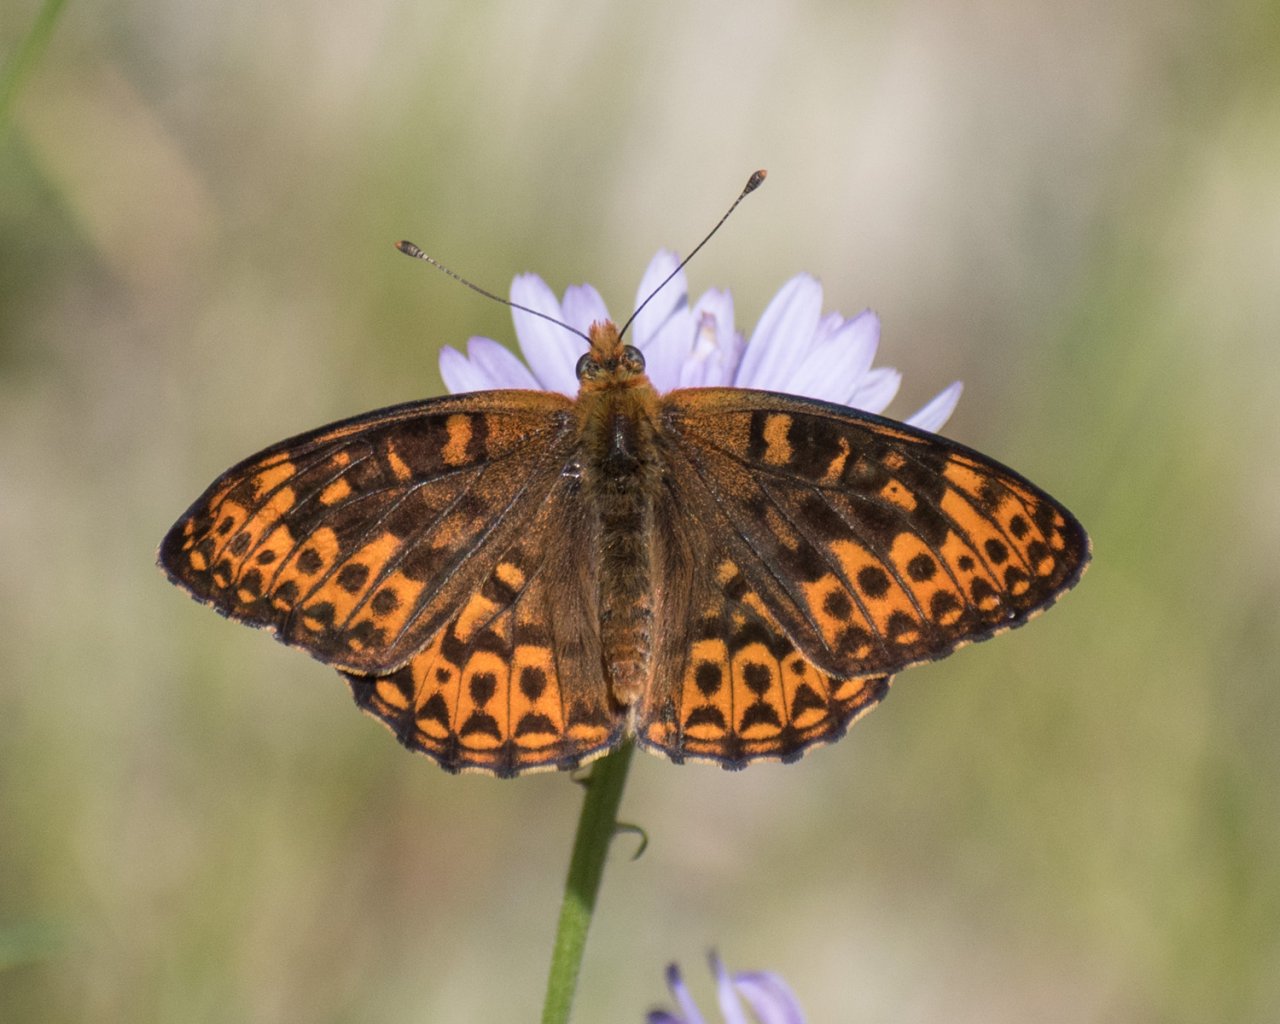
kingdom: Animalia
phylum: Arthropoda
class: Insecta
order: Lepidoptera
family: Nymphalidae
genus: Speyeria
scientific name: Speyeria hydaspe
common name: Hydaspe Fritillary
